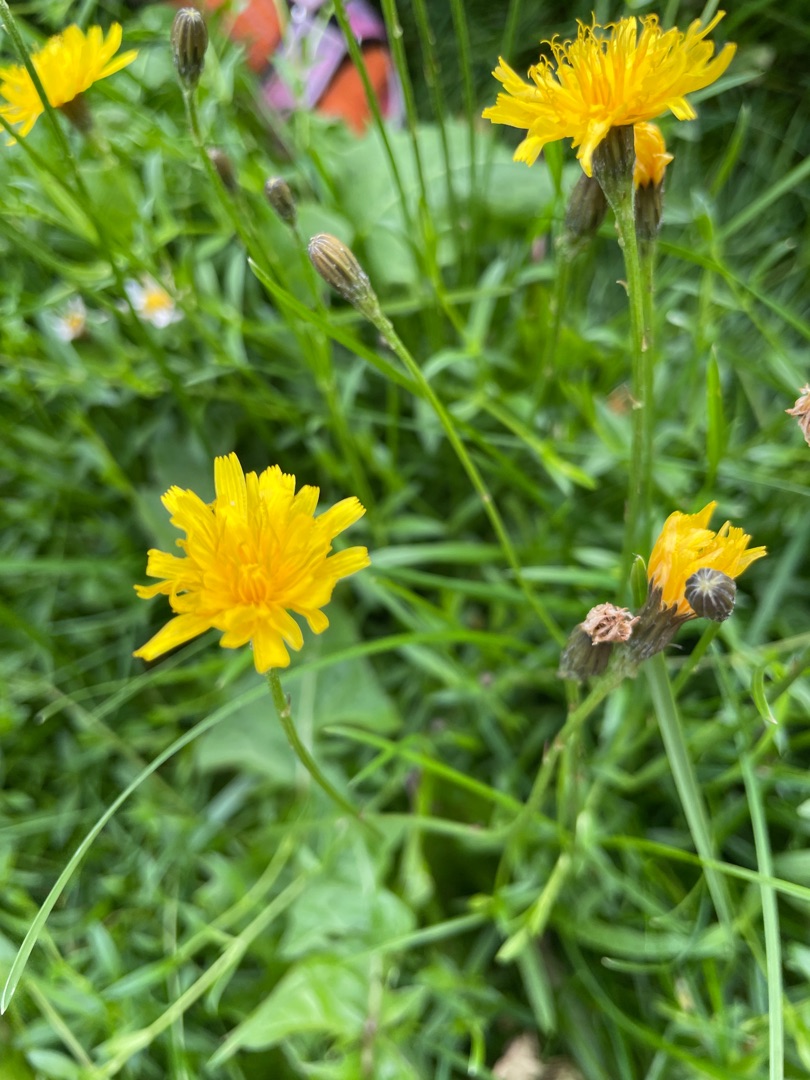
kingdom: Plantae
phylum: Tracheophyta
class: Magnoliopsida
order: Asterales
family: Asteraceae
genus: Scorzoneroides
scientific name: Scorzoneroides autumnalis
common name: Høst-borst
